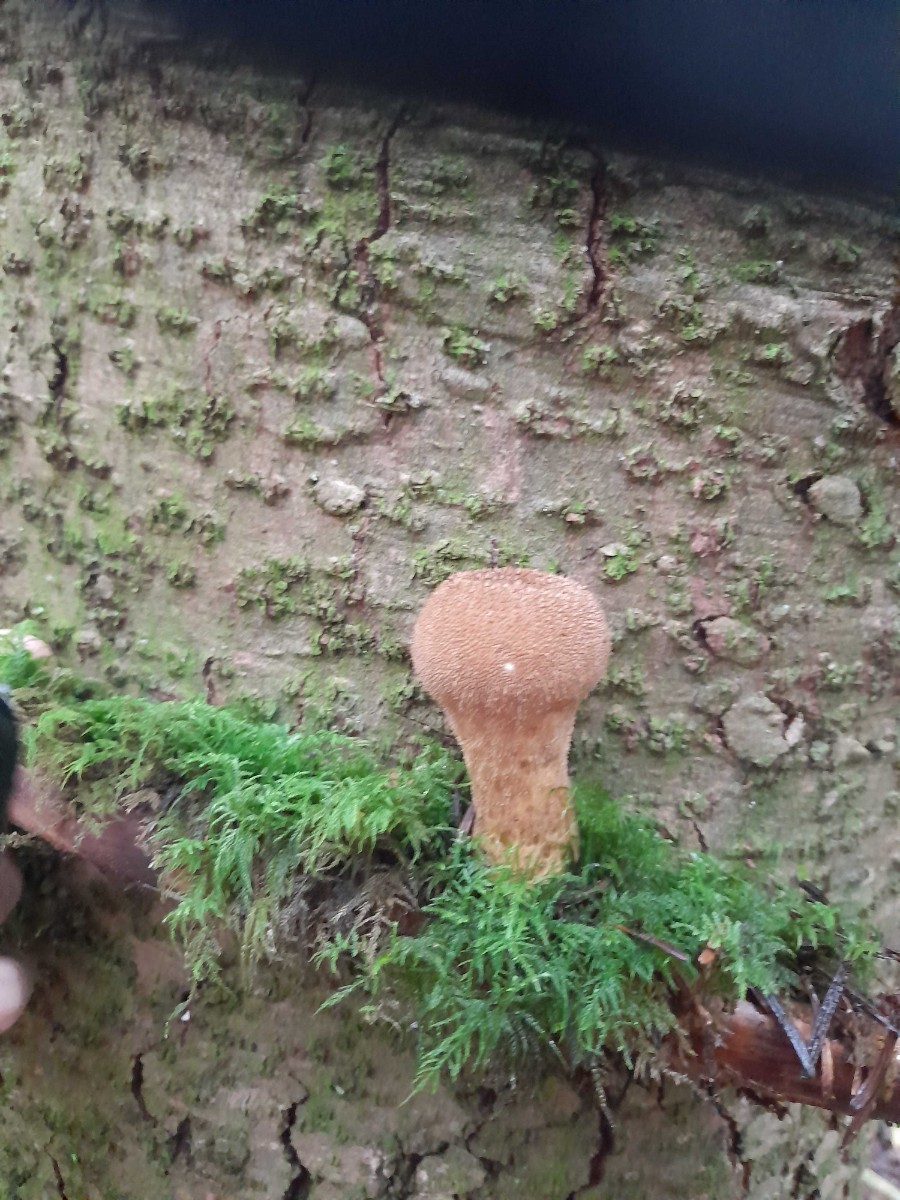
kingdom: Fungi
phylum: Basidiomycota
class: Agaricomycetes
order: Agaricales
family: Agaricaceae
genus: Lycoperdon
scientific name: Lycoperdon
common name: støvbold
